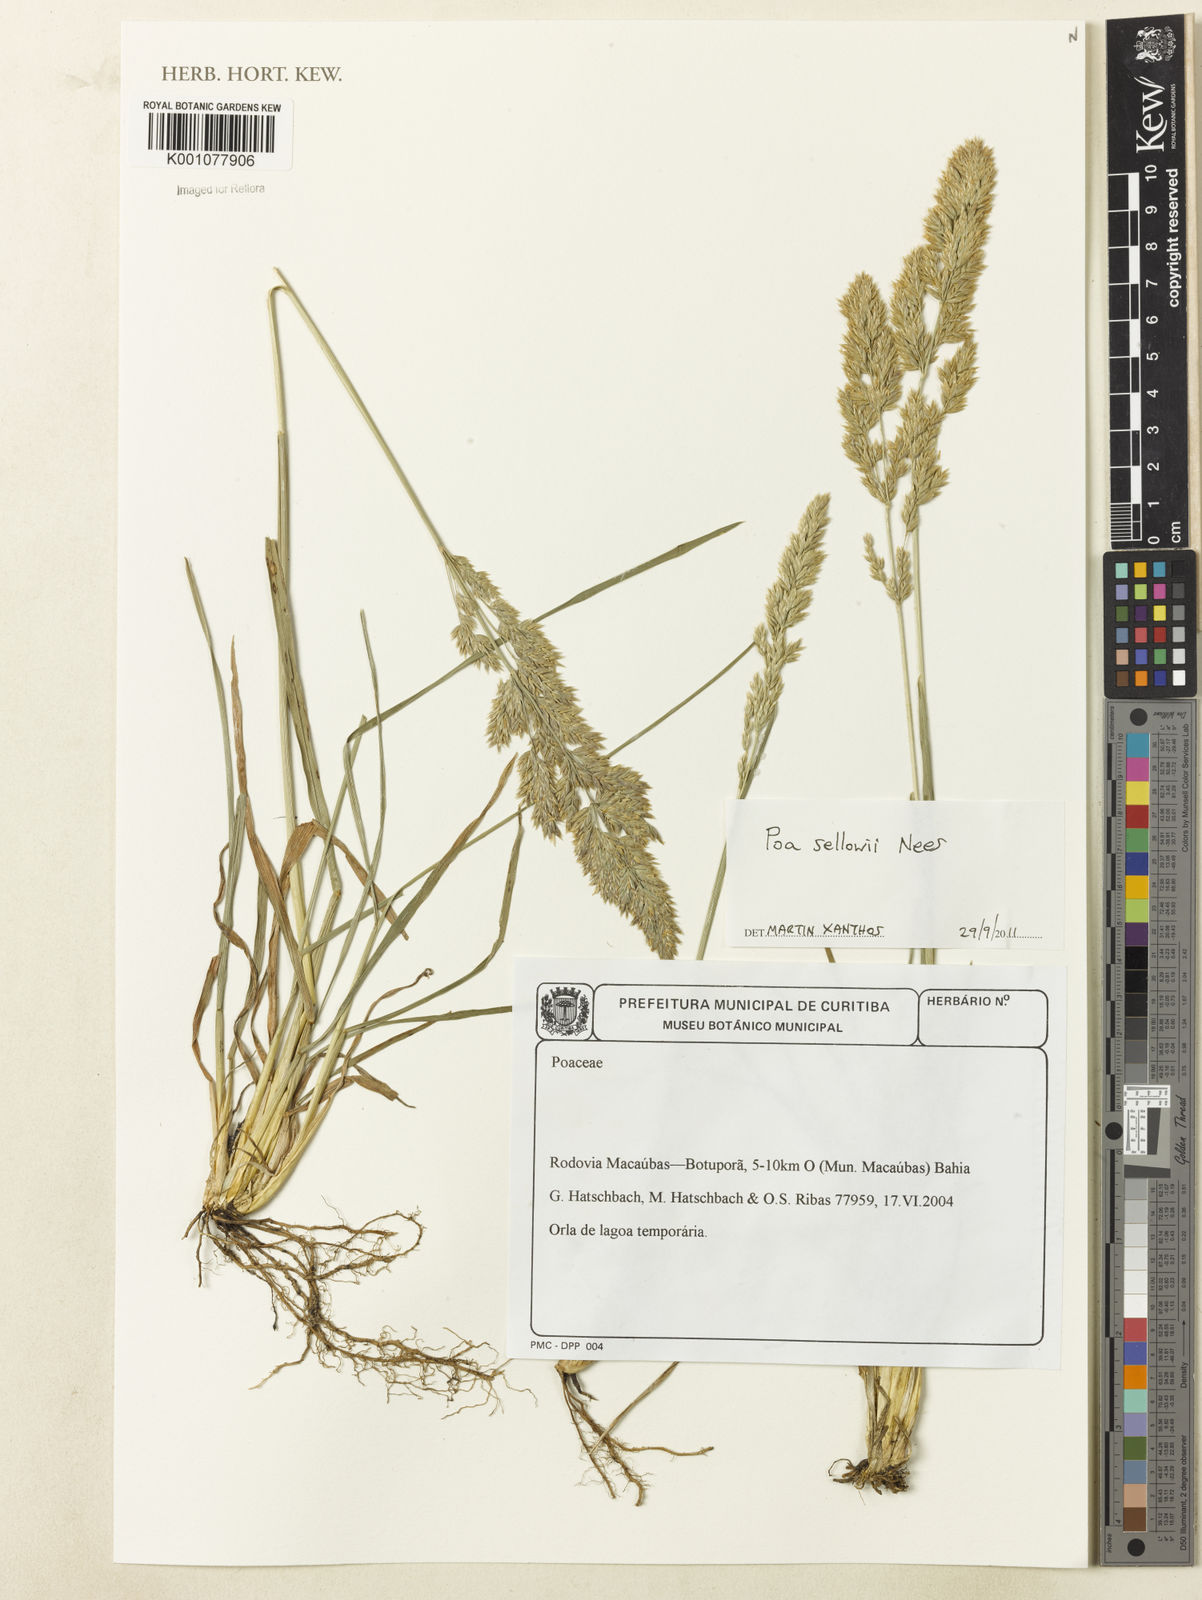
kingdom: Plantae
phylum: Tracheophyta
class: Liliopsida
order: Poales
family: Poaceae
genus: Poa
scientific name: Poa
